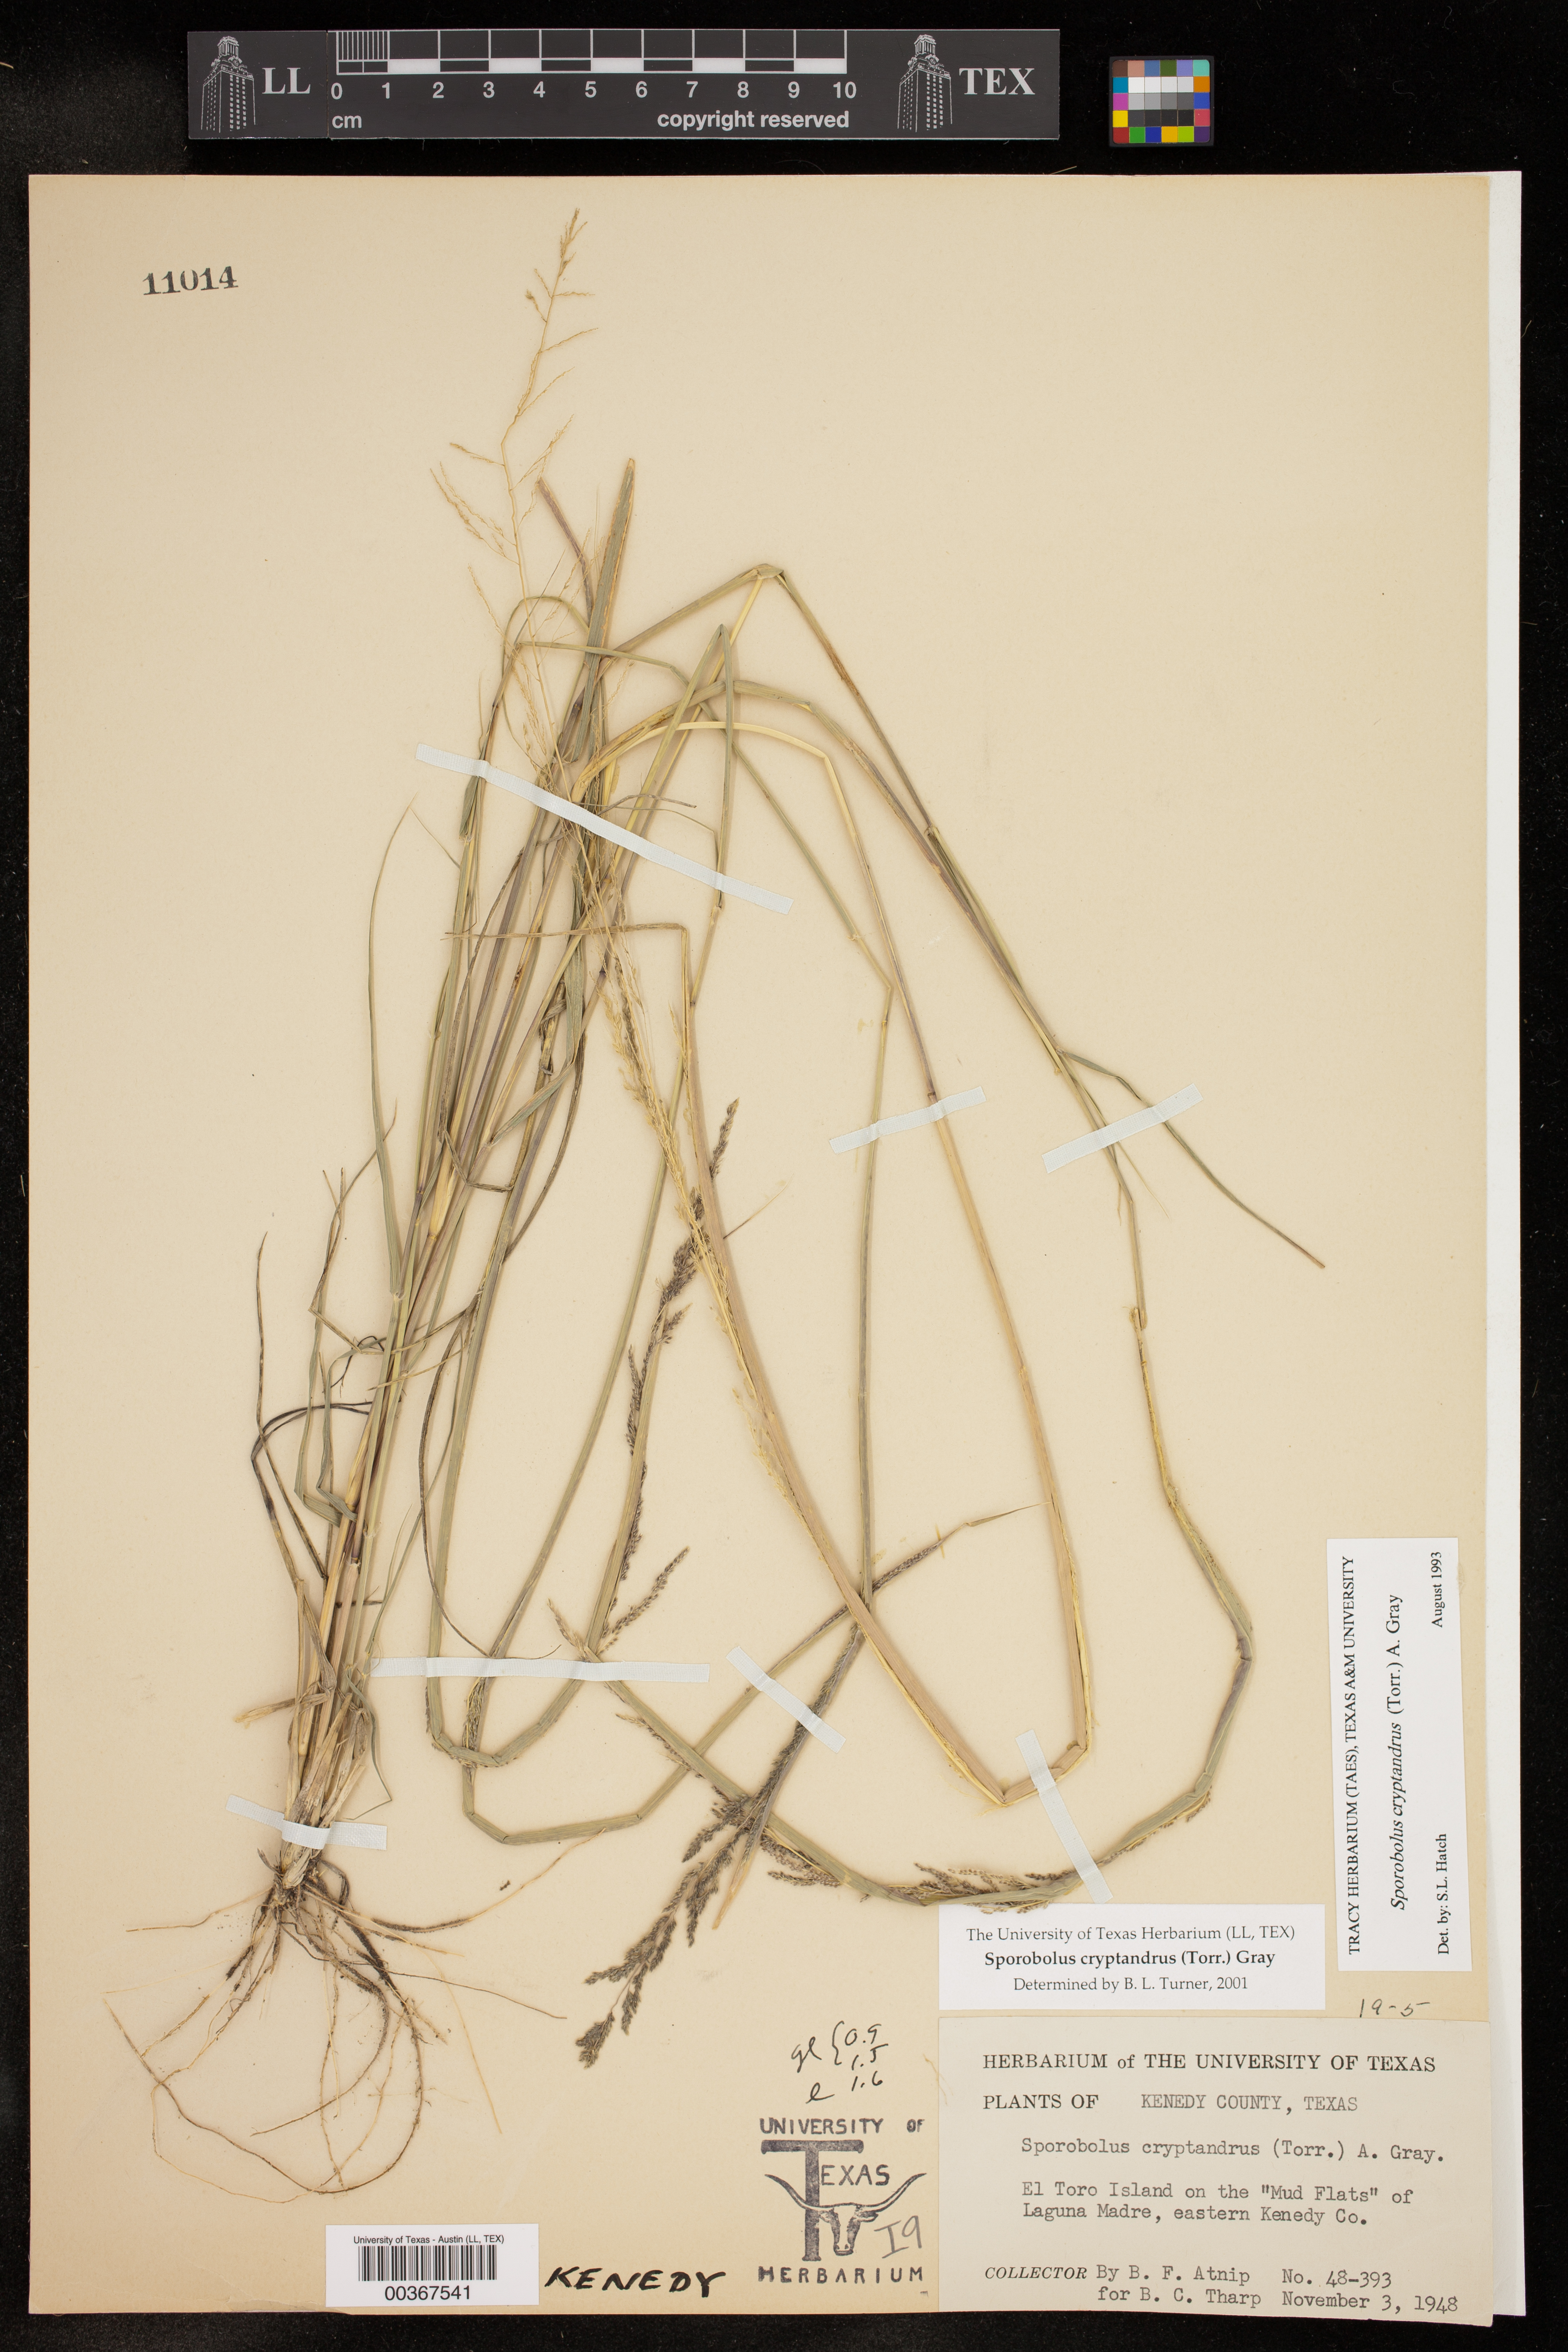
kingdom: Plantae
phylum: Tracheophyta
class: Liliopsida
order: Poales
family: Poaceae
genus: Sporobolus
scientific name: Sporobolus cryptandrus
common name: Sand dropseed
